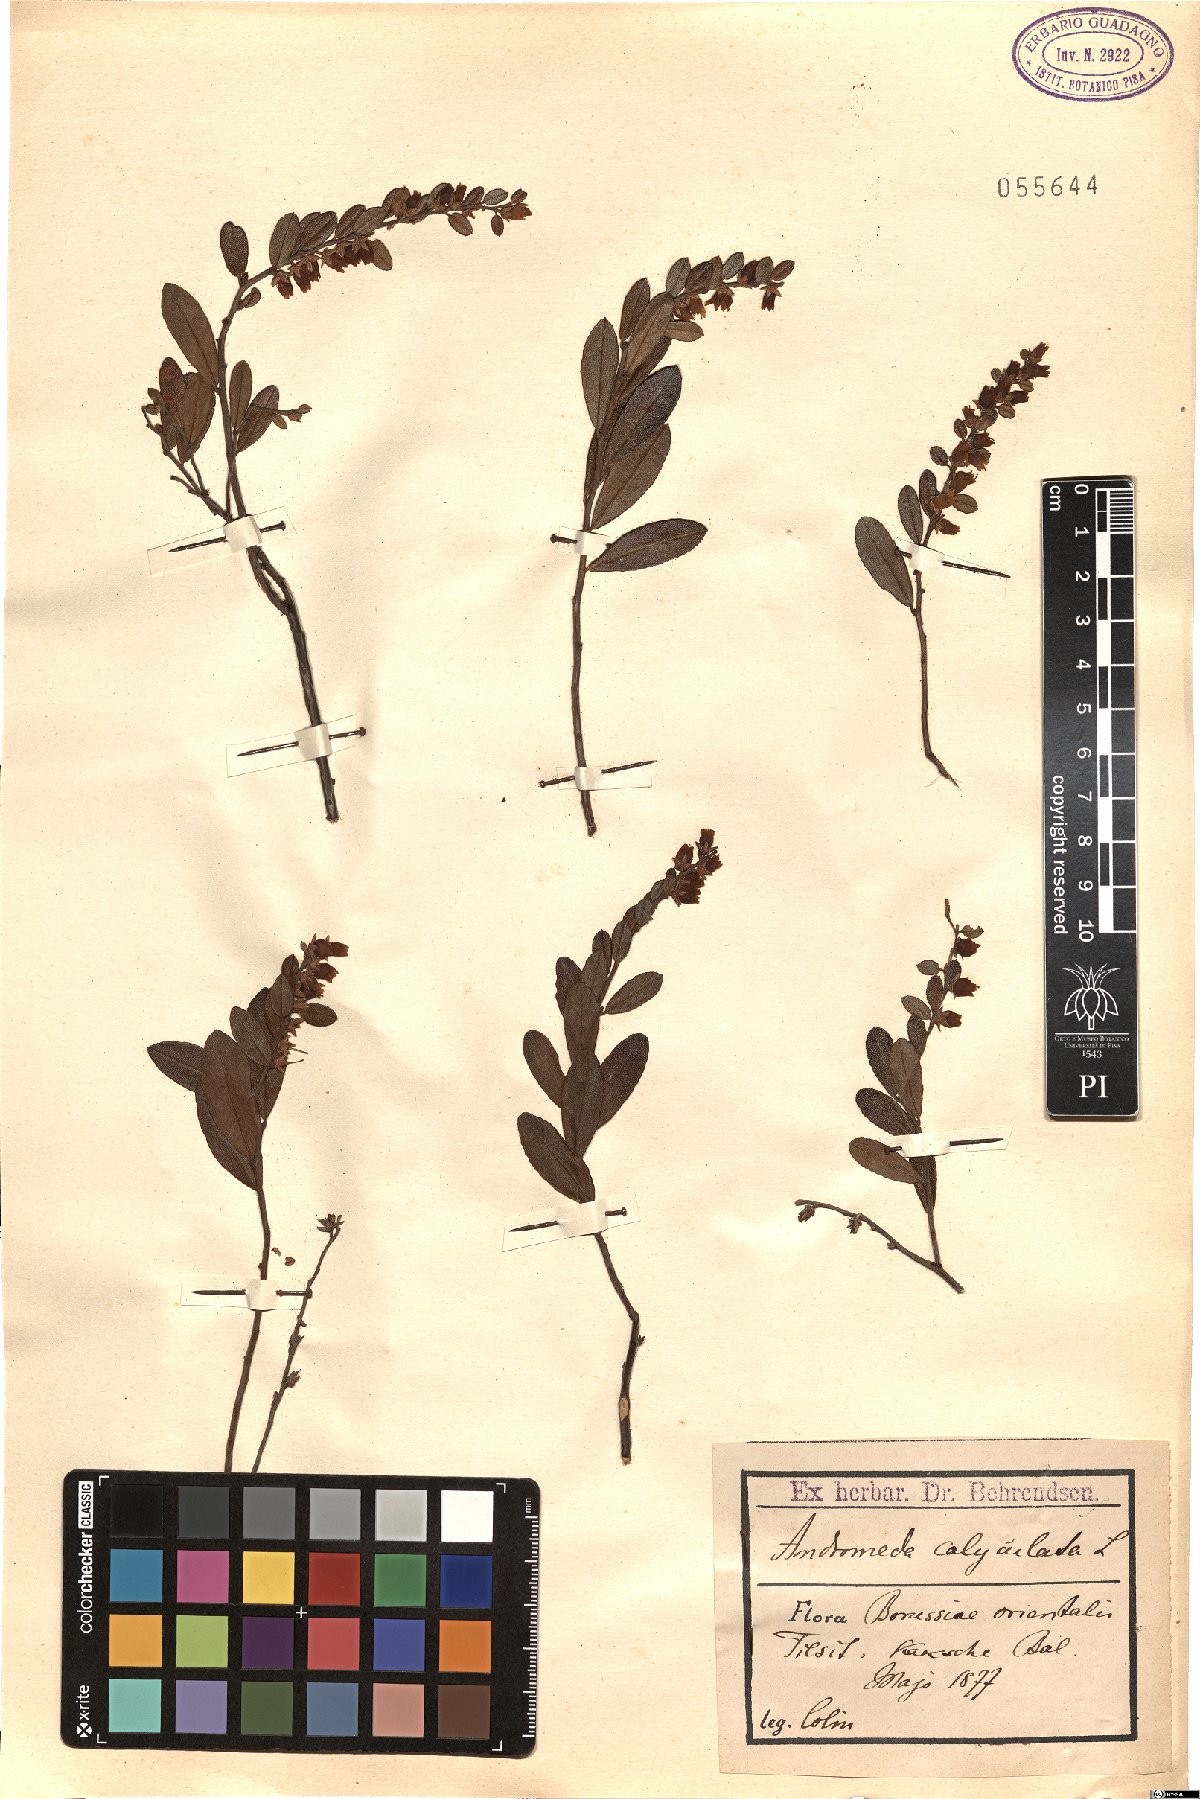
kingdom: Plantae
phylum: Tracheophyta
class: Magnoliopsida
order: Ericales
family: Ericaceae
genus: Chamaedaphne
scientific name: Chamaedaphne calyculata
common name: Leatherleaf
